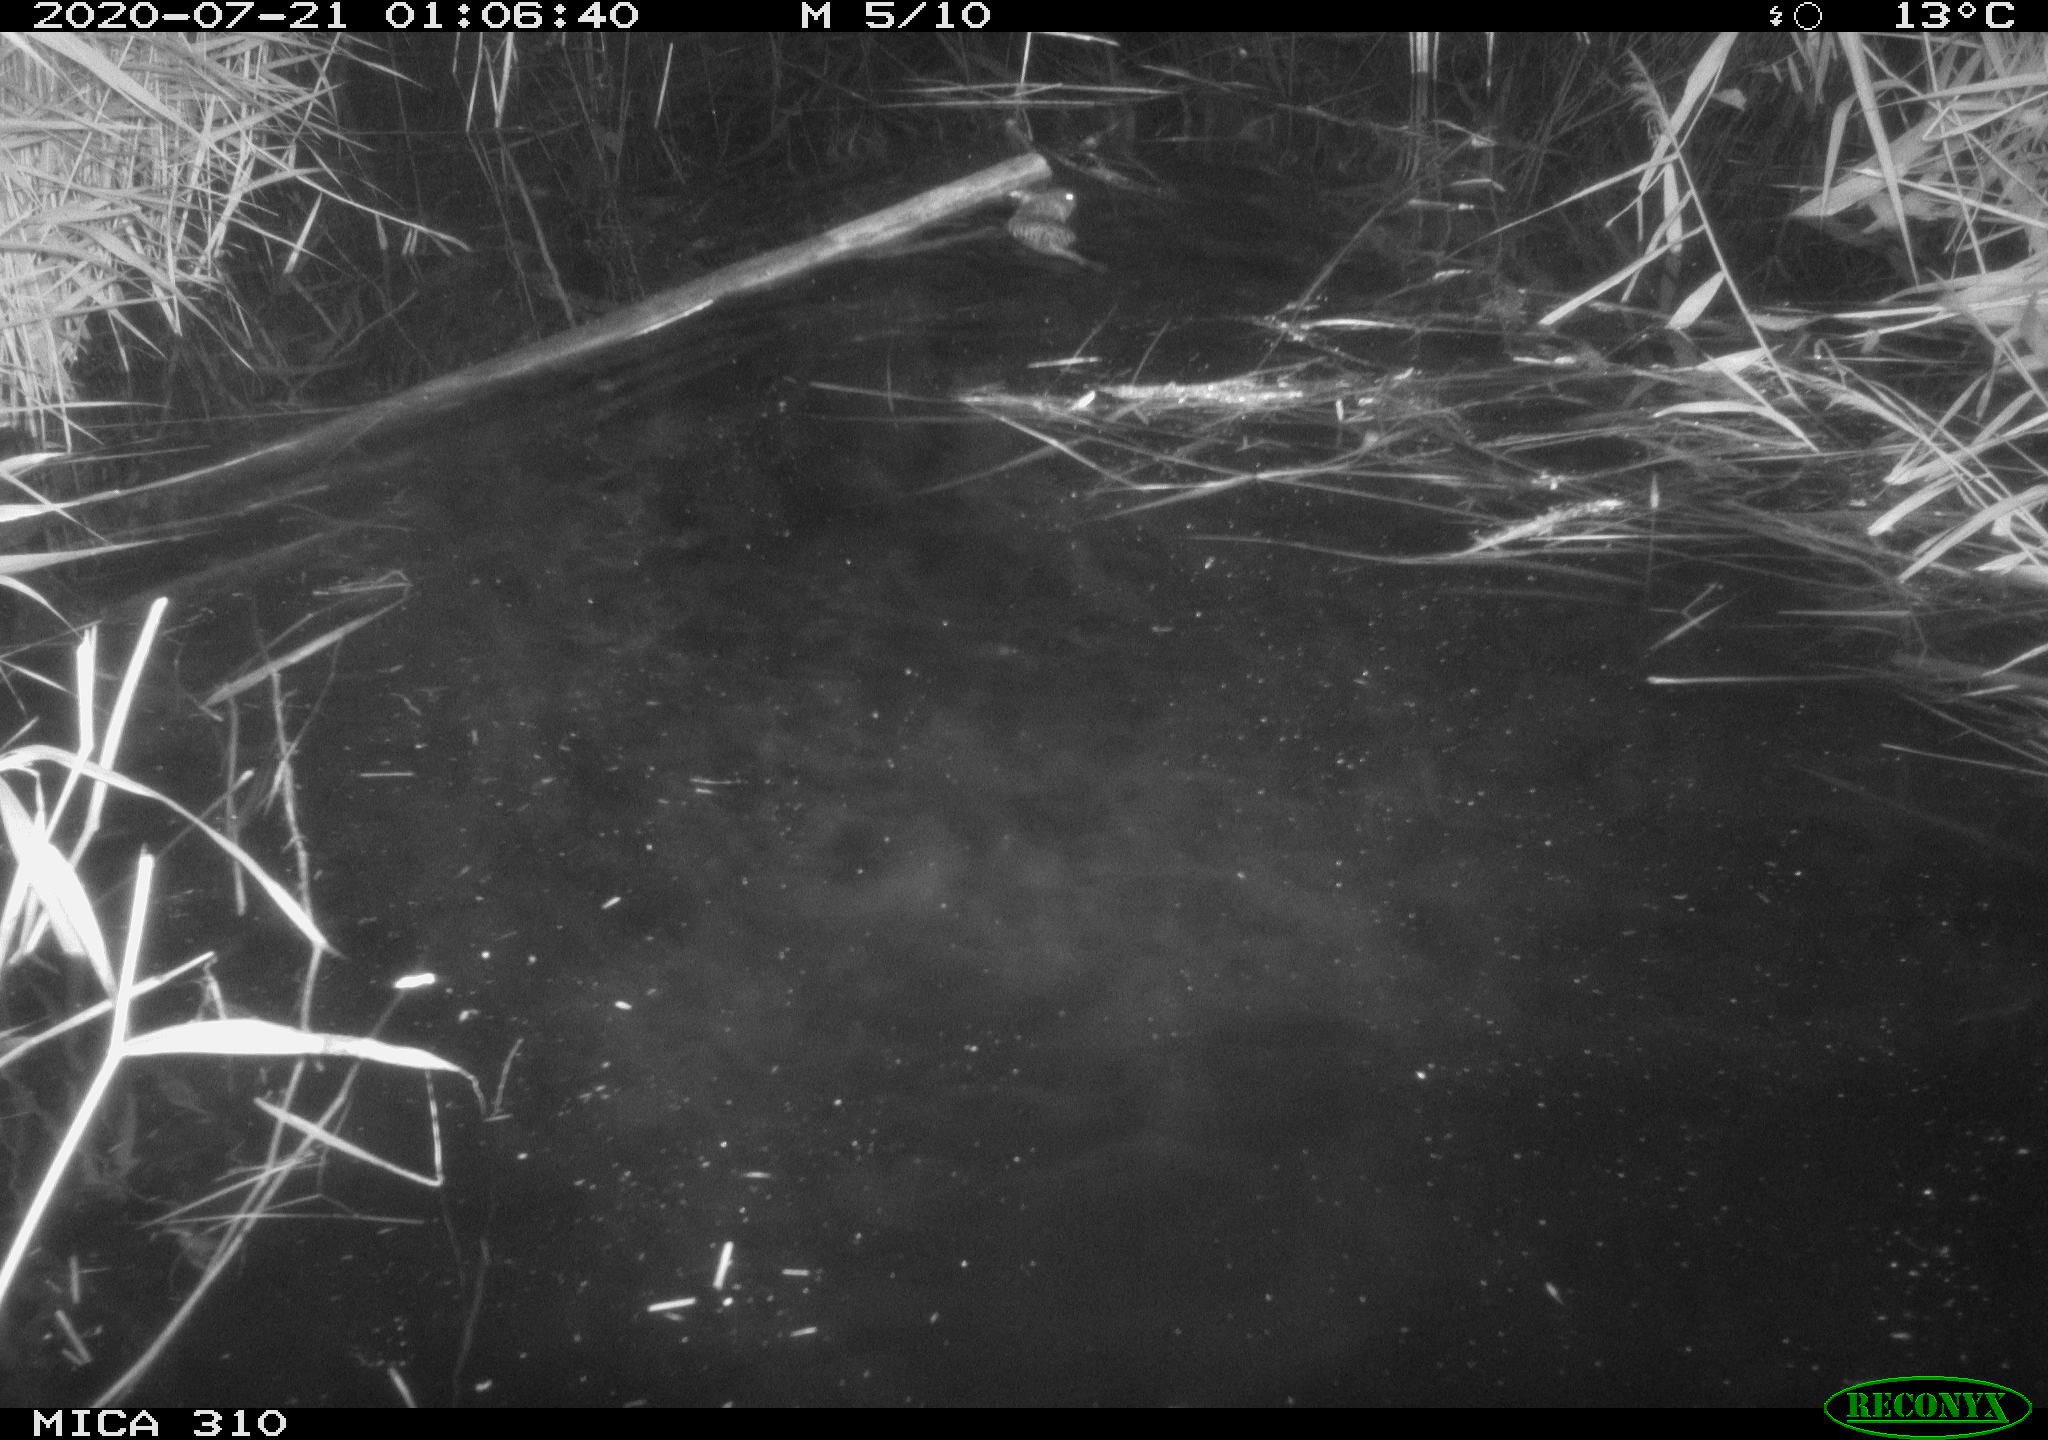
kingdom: Animalia
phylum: Chordata
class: Mammalia
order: Rodentia
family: Cricetidae
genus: Ondatra
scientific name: Ondatra zibethicus
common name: Muskrat
